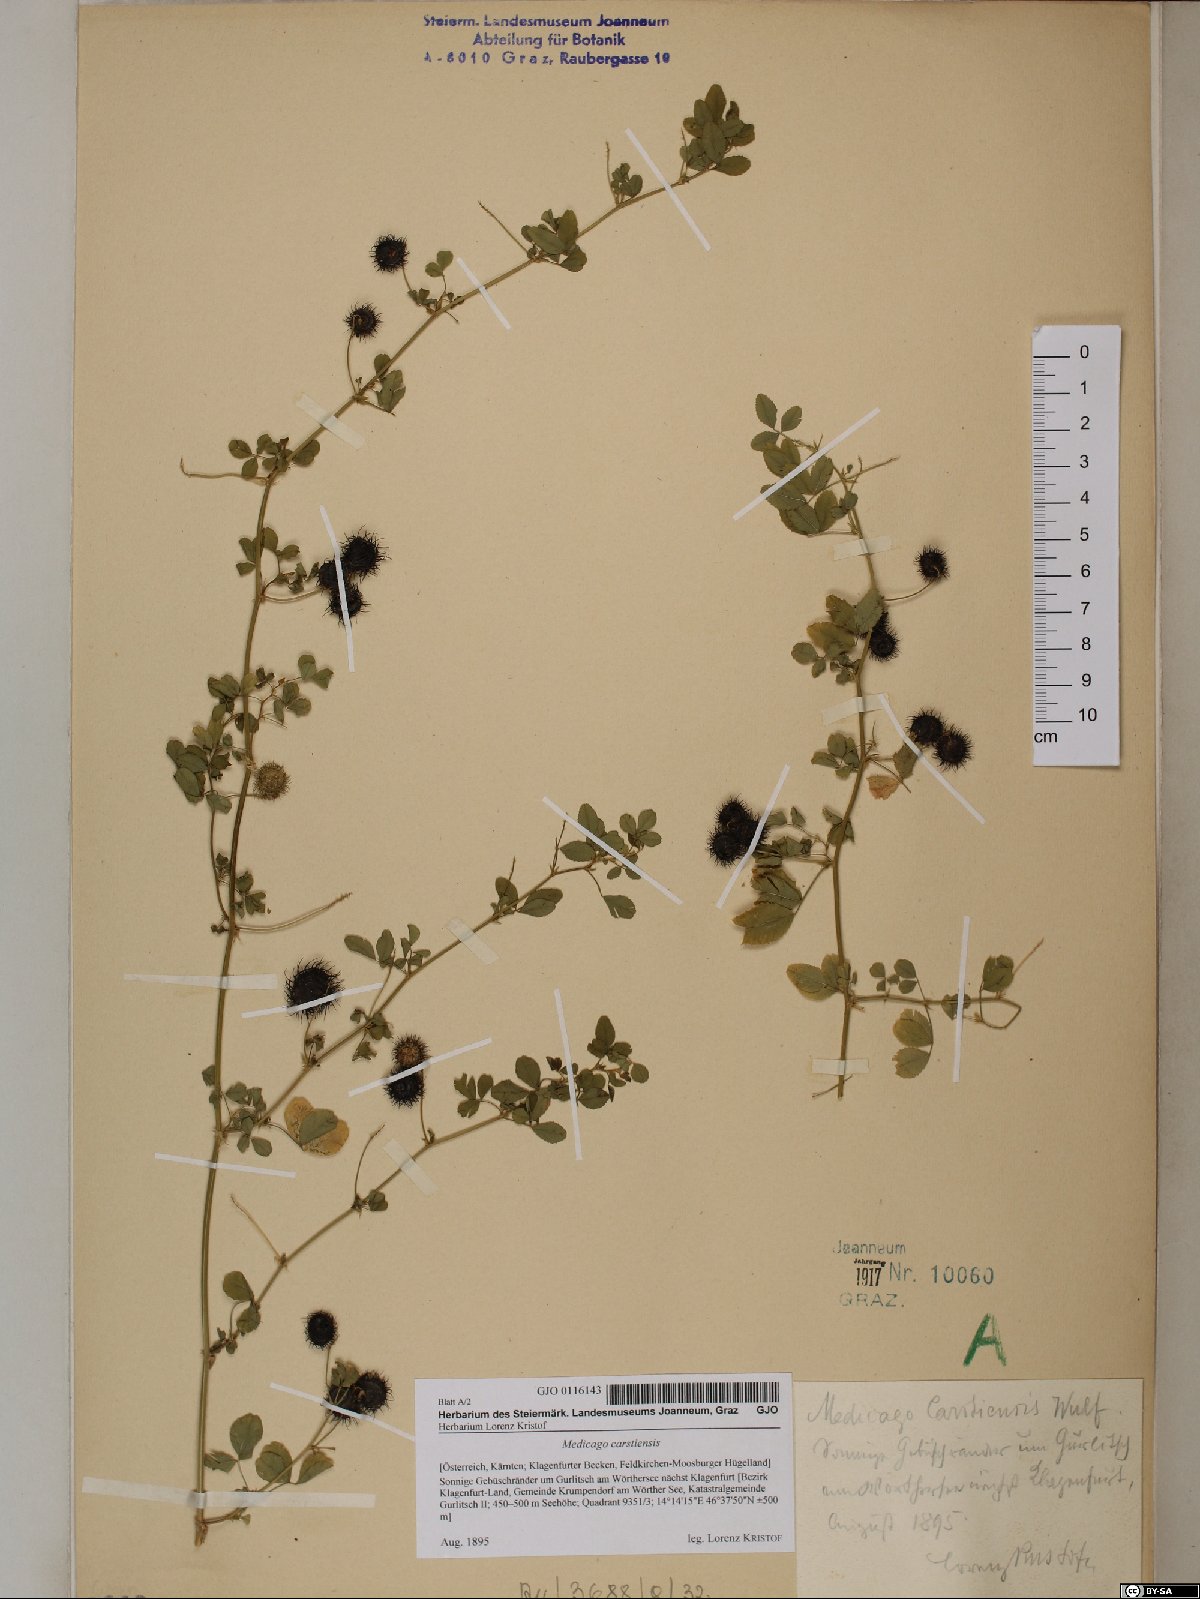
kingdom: Plantae
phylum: Tracheophyta
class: Magnoliopsida
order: Fabales
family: Fabaceae
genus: Medicago
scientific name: Medicago carstiensis
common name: Creeping-rooted medic
